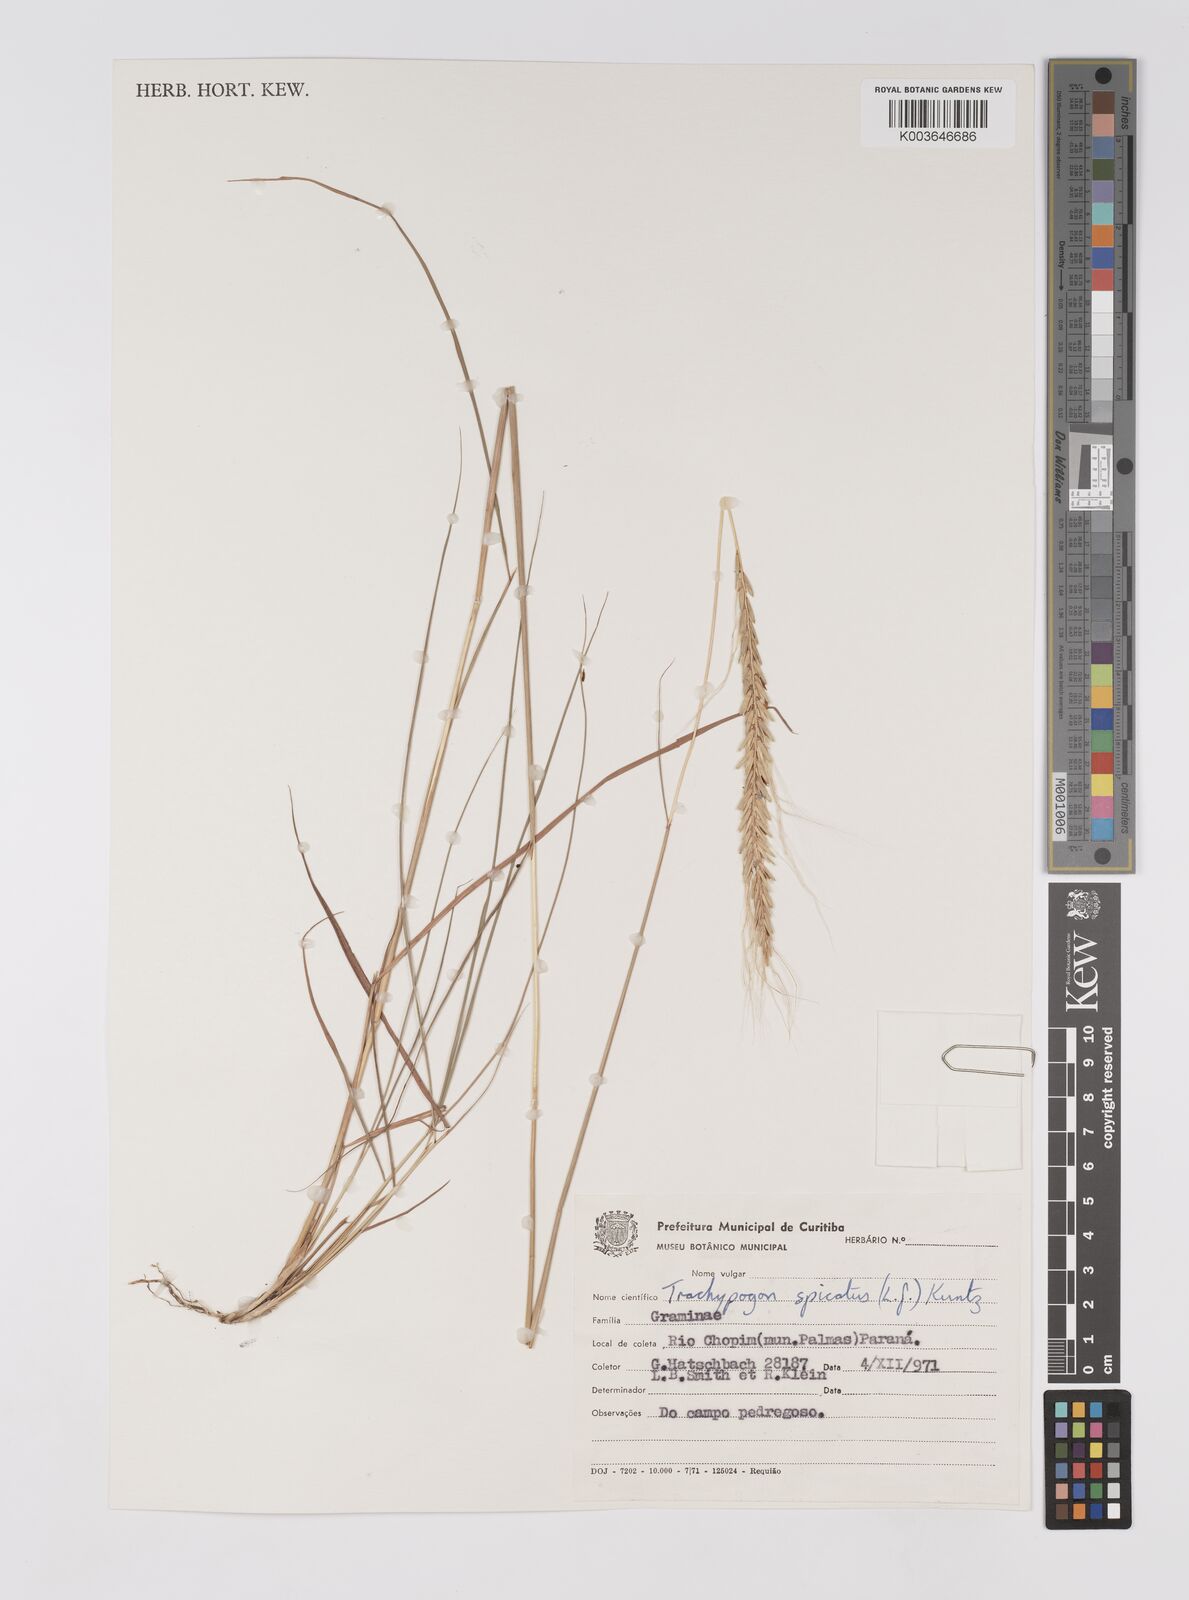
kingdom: Plantae
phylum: Tracheophyta
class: Liliopsida
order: Poales
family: Poaceae
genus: Trachypogon
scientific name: Trachypogon spicatus
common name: Crinkle-awn
